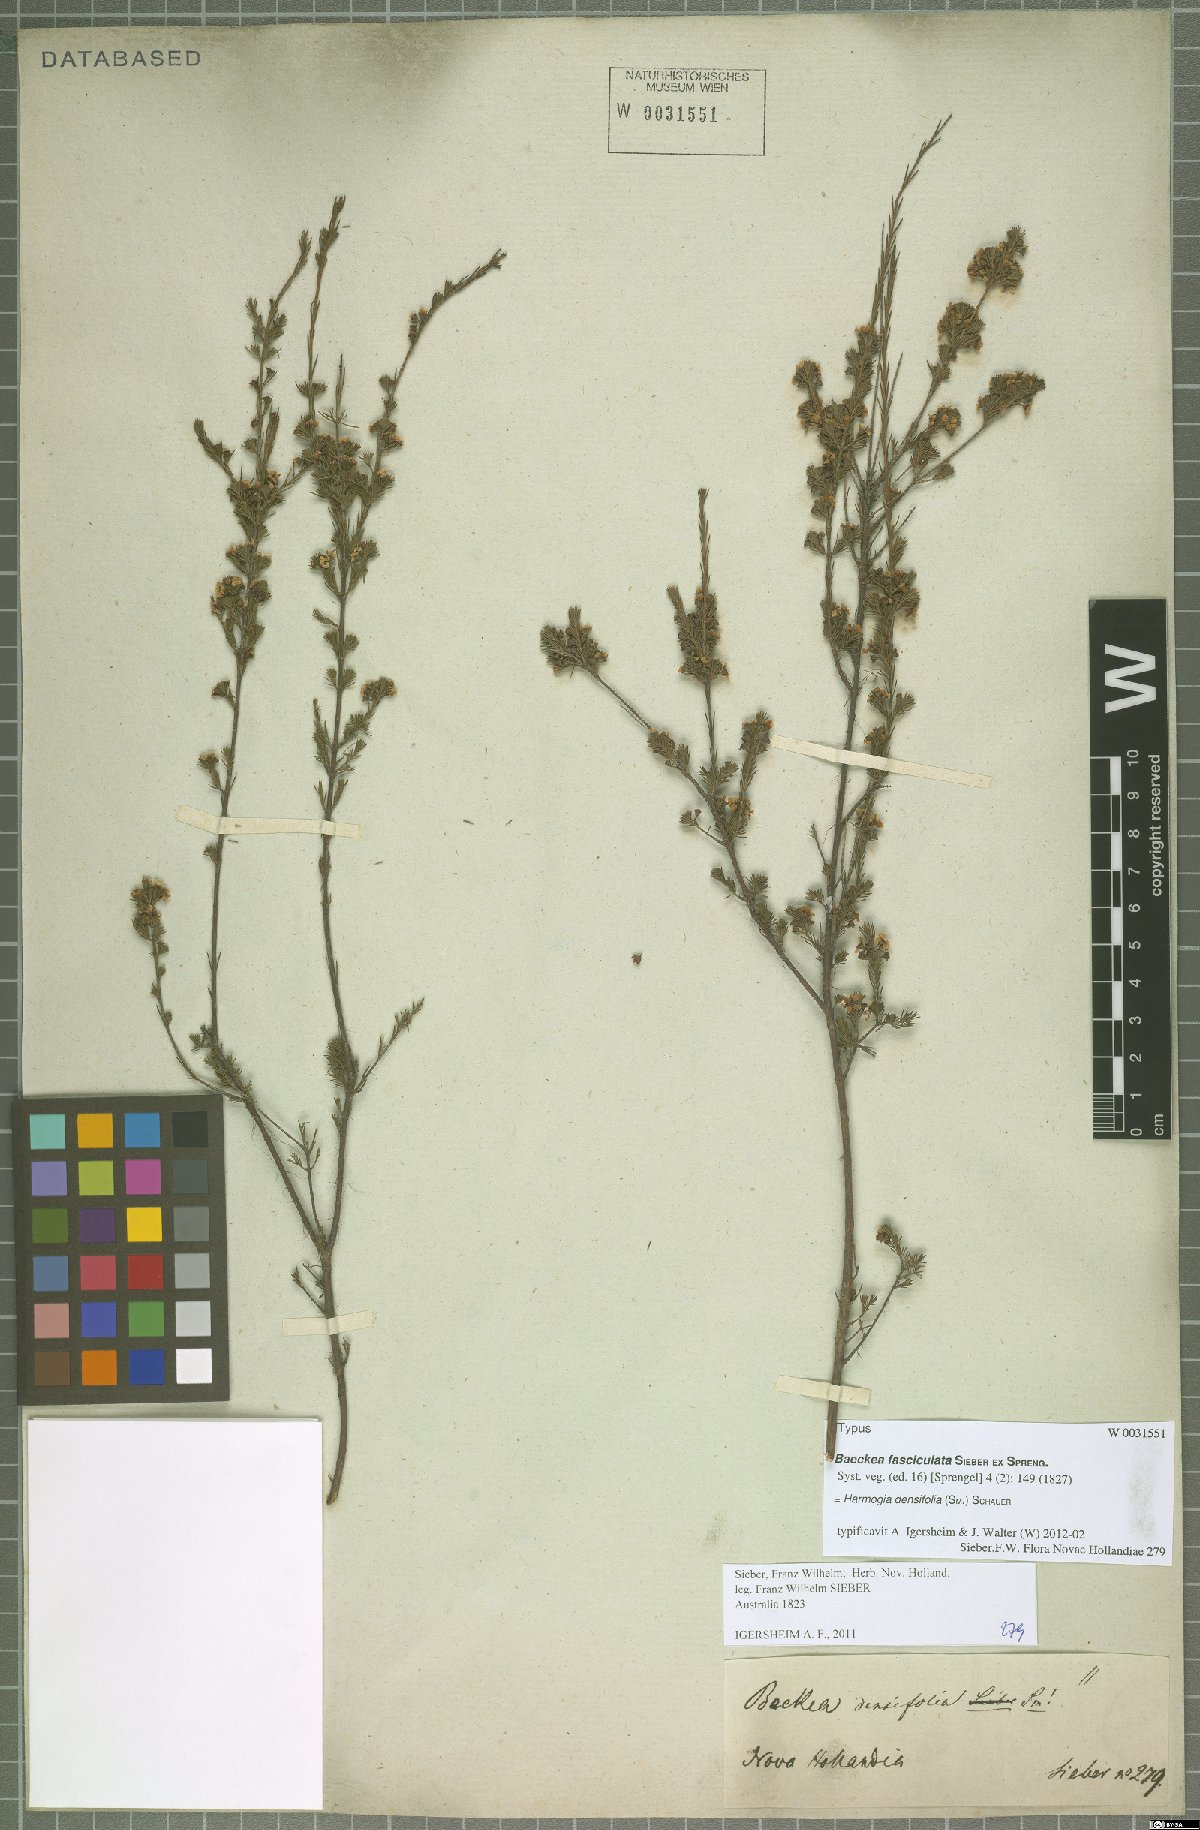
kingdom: Plantae
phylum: Tracheophyta
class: Magnoliopsida
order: Myrtales
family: Myrtaceae
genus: Harmogia
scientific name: Harmogia densifolia
